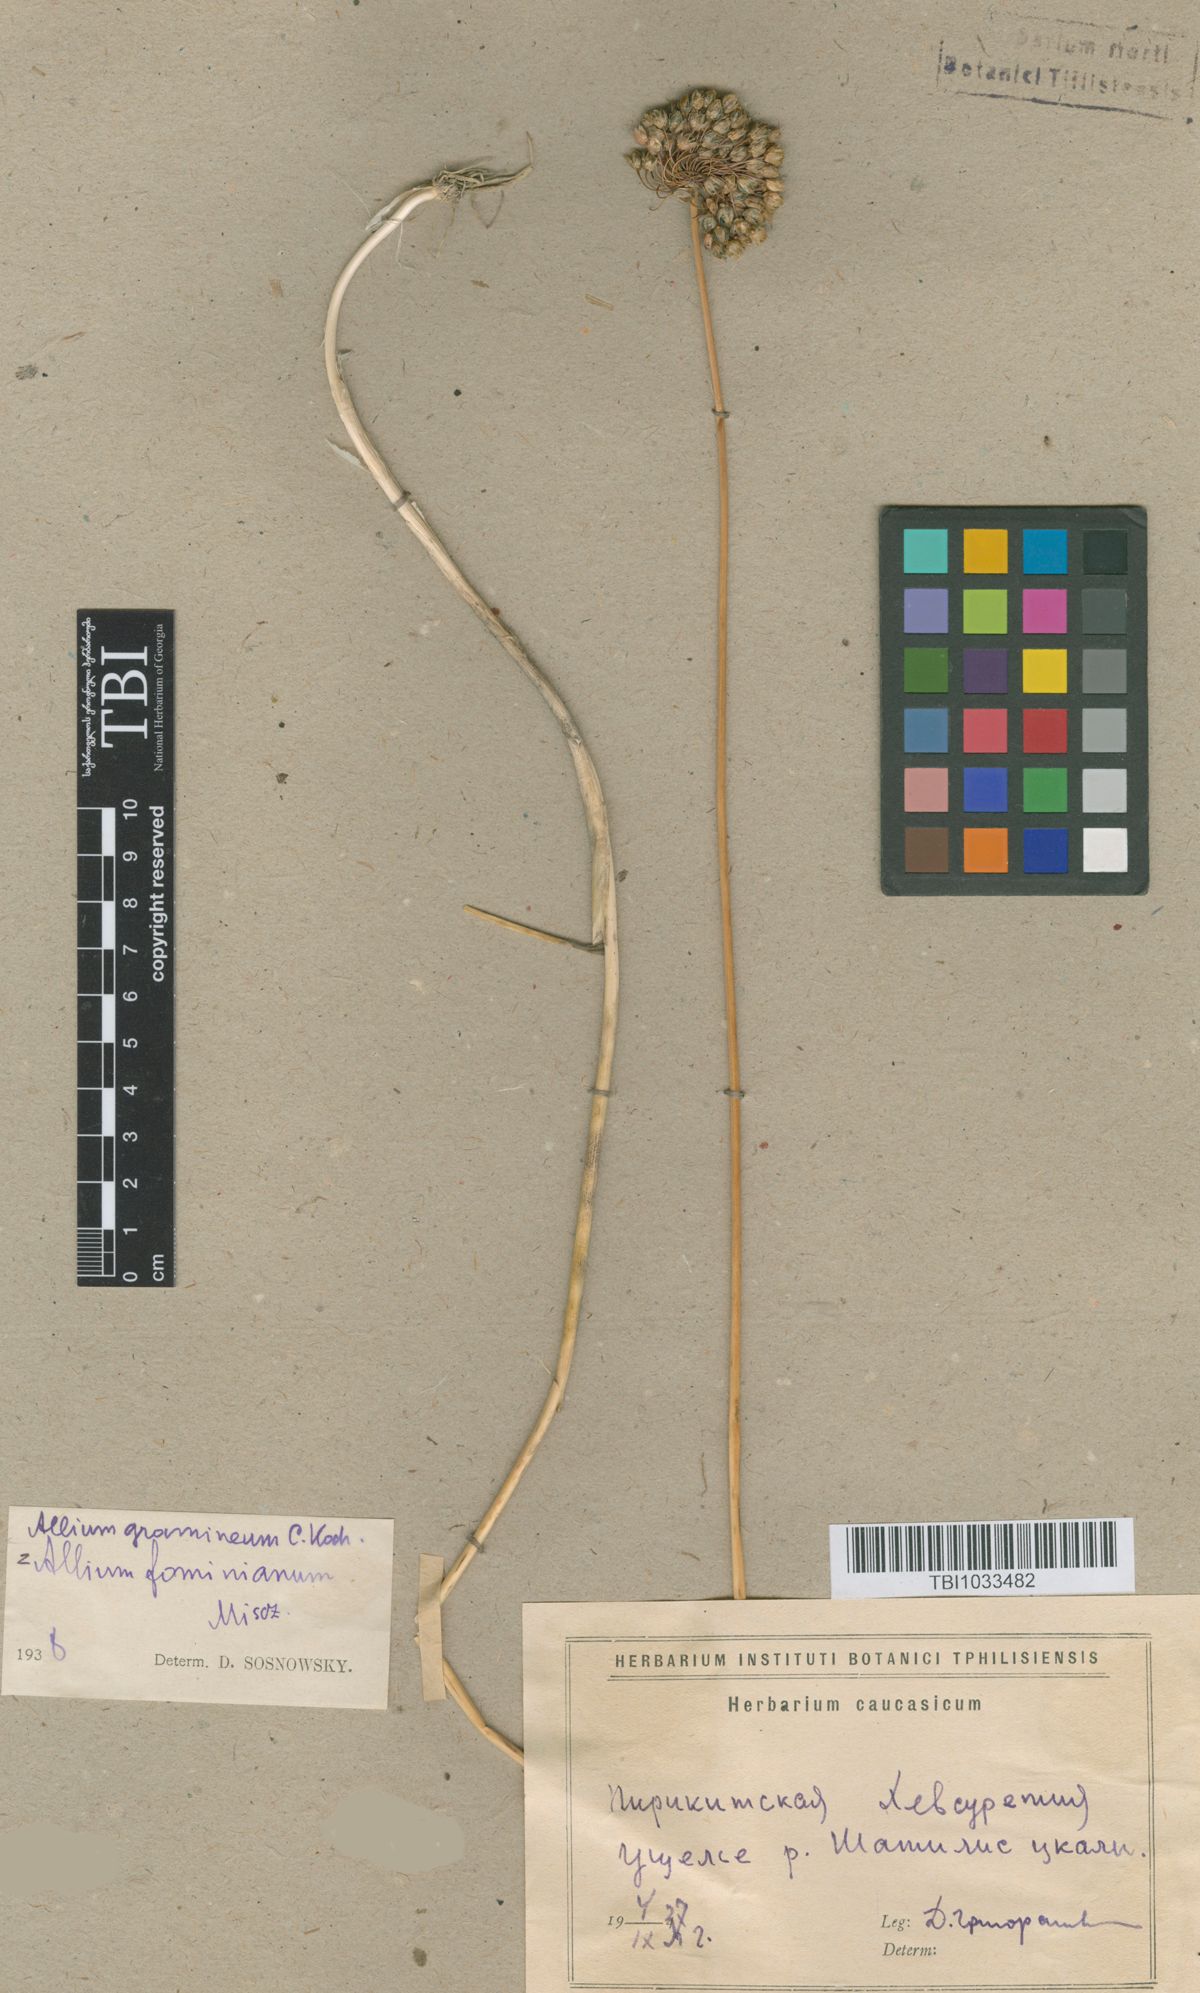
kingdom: Plantae
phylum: Tracheophyta
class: Liliopsida
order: Asparagales
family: Amaryllidaceae
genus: Allium
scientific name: Allium gramineum
